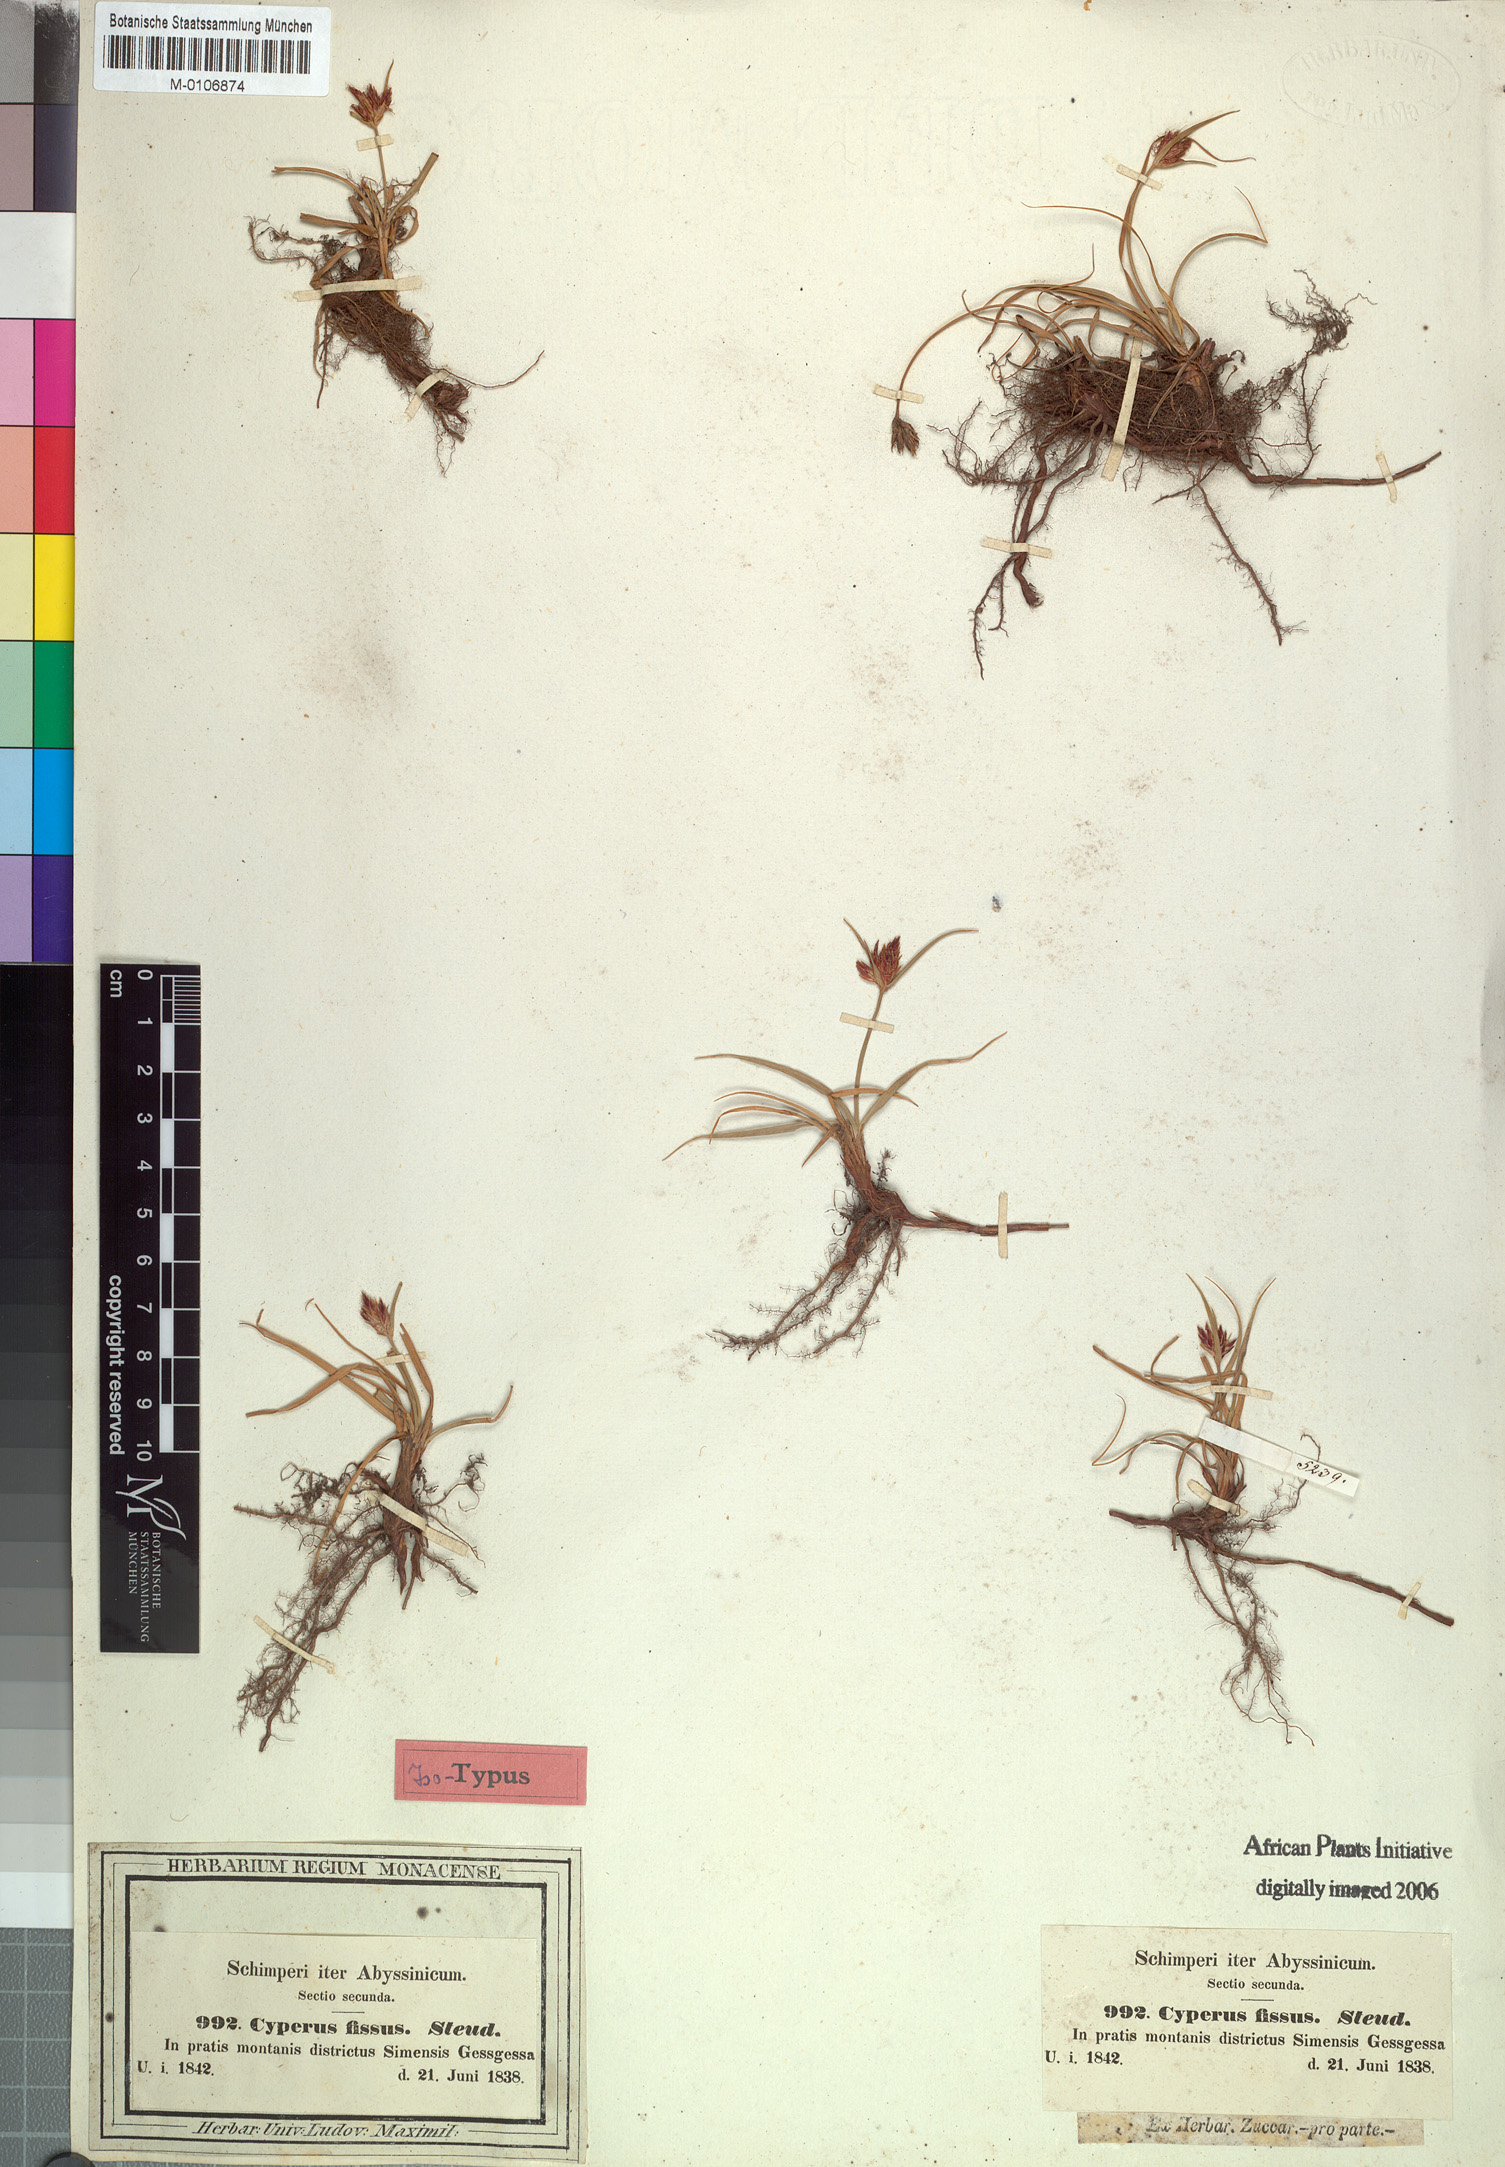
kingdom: Plantae
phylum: Tracheophyta
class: Liliopsida
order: Poales
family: Cyperaceae
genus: Cyperus
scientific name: Cyperus fissus
